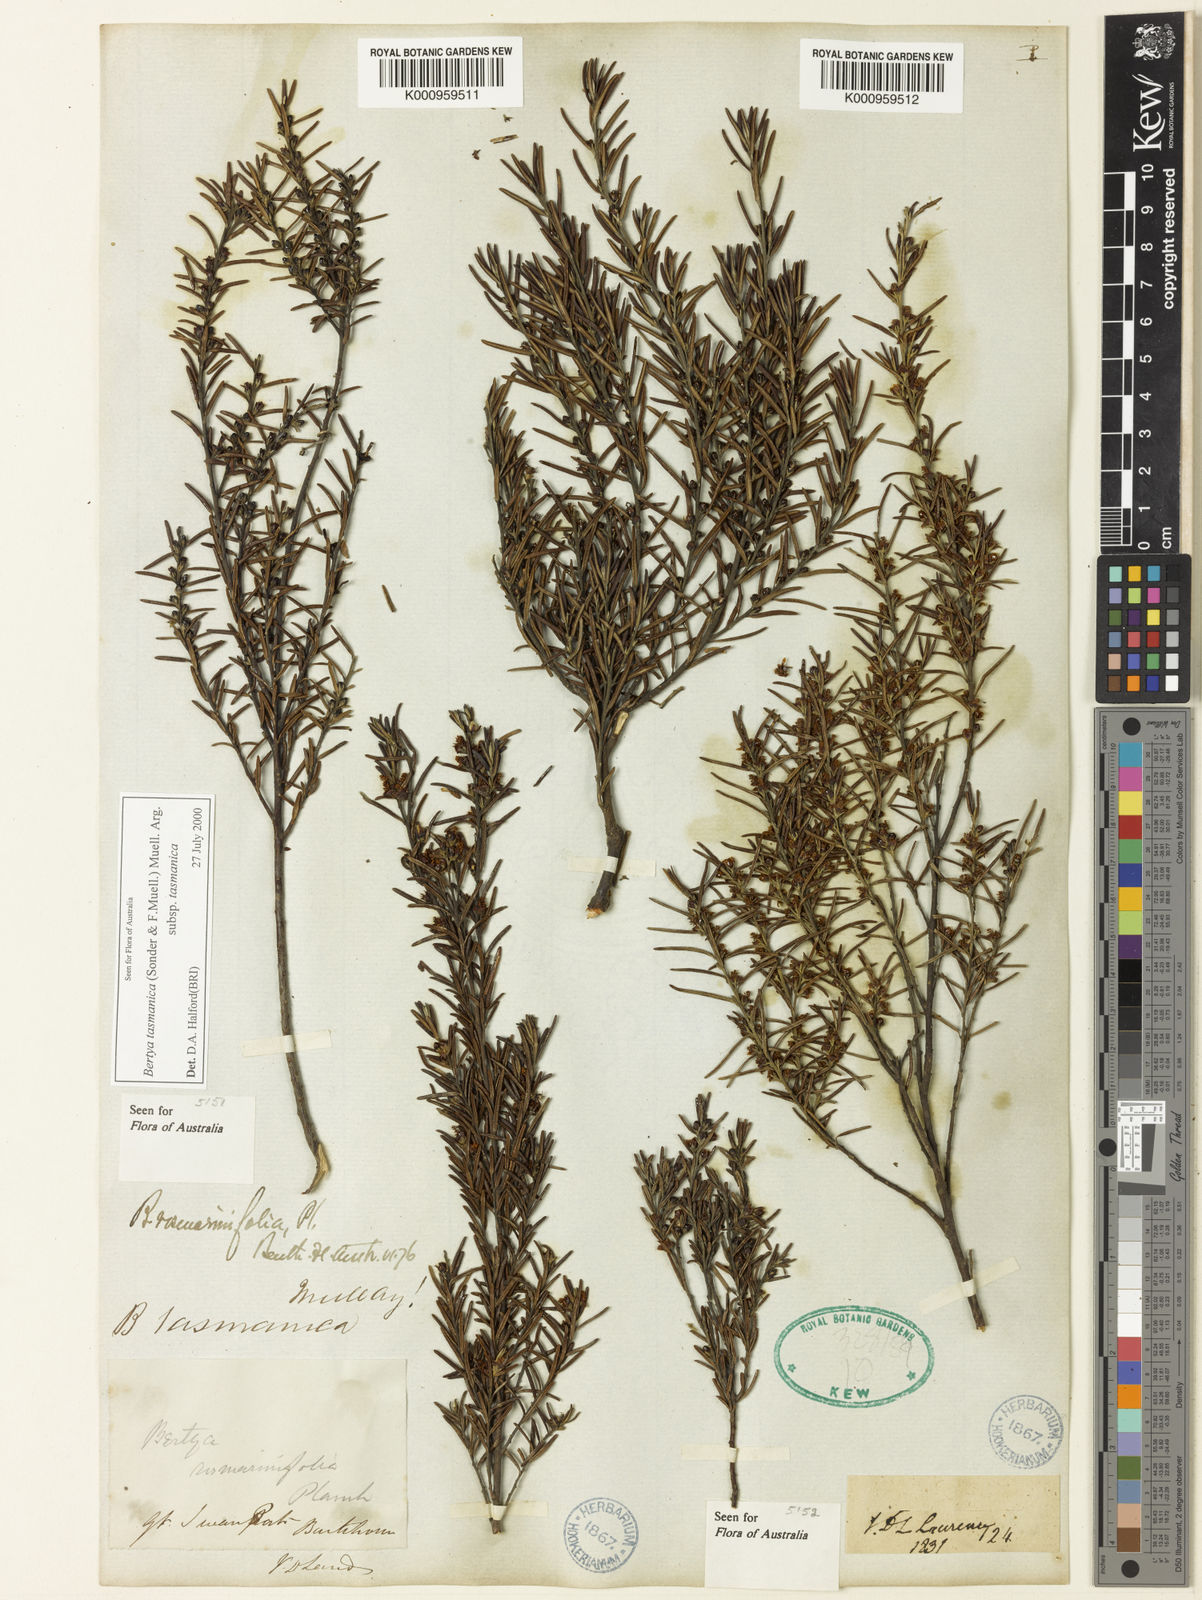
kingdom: Plantae
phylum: Tracheophyta
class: Magnoliopsida
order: Malpighiales
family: Euphorbiaceae
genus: Bertya
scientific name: Bertya rosmarinifolia
